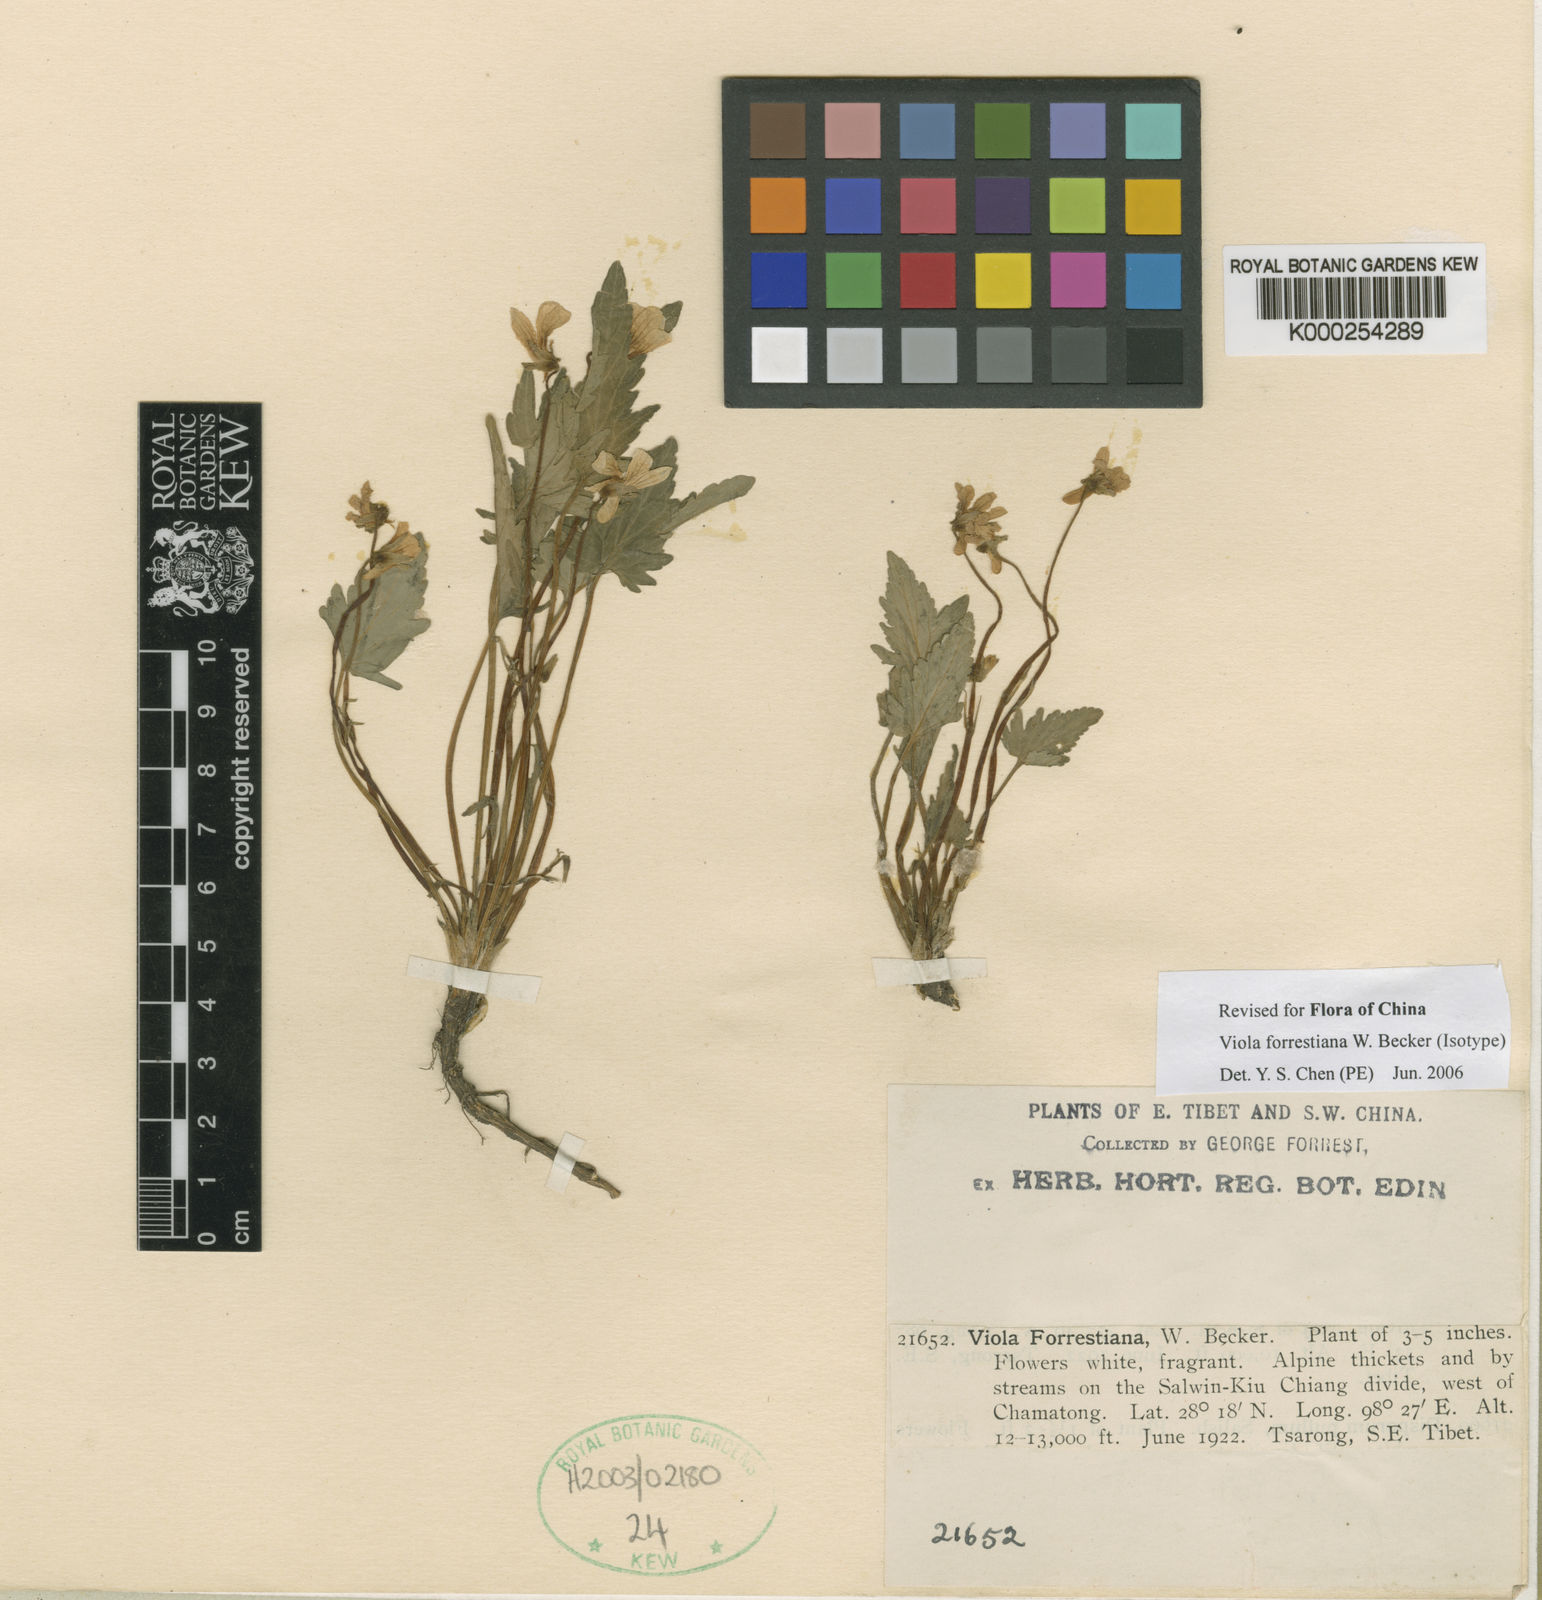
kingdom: Plantae
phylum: Tracheophyta
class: Magnoliopsida
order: Malpighiales
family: Violaceae
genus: Viola
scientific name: Viola forrestiana
